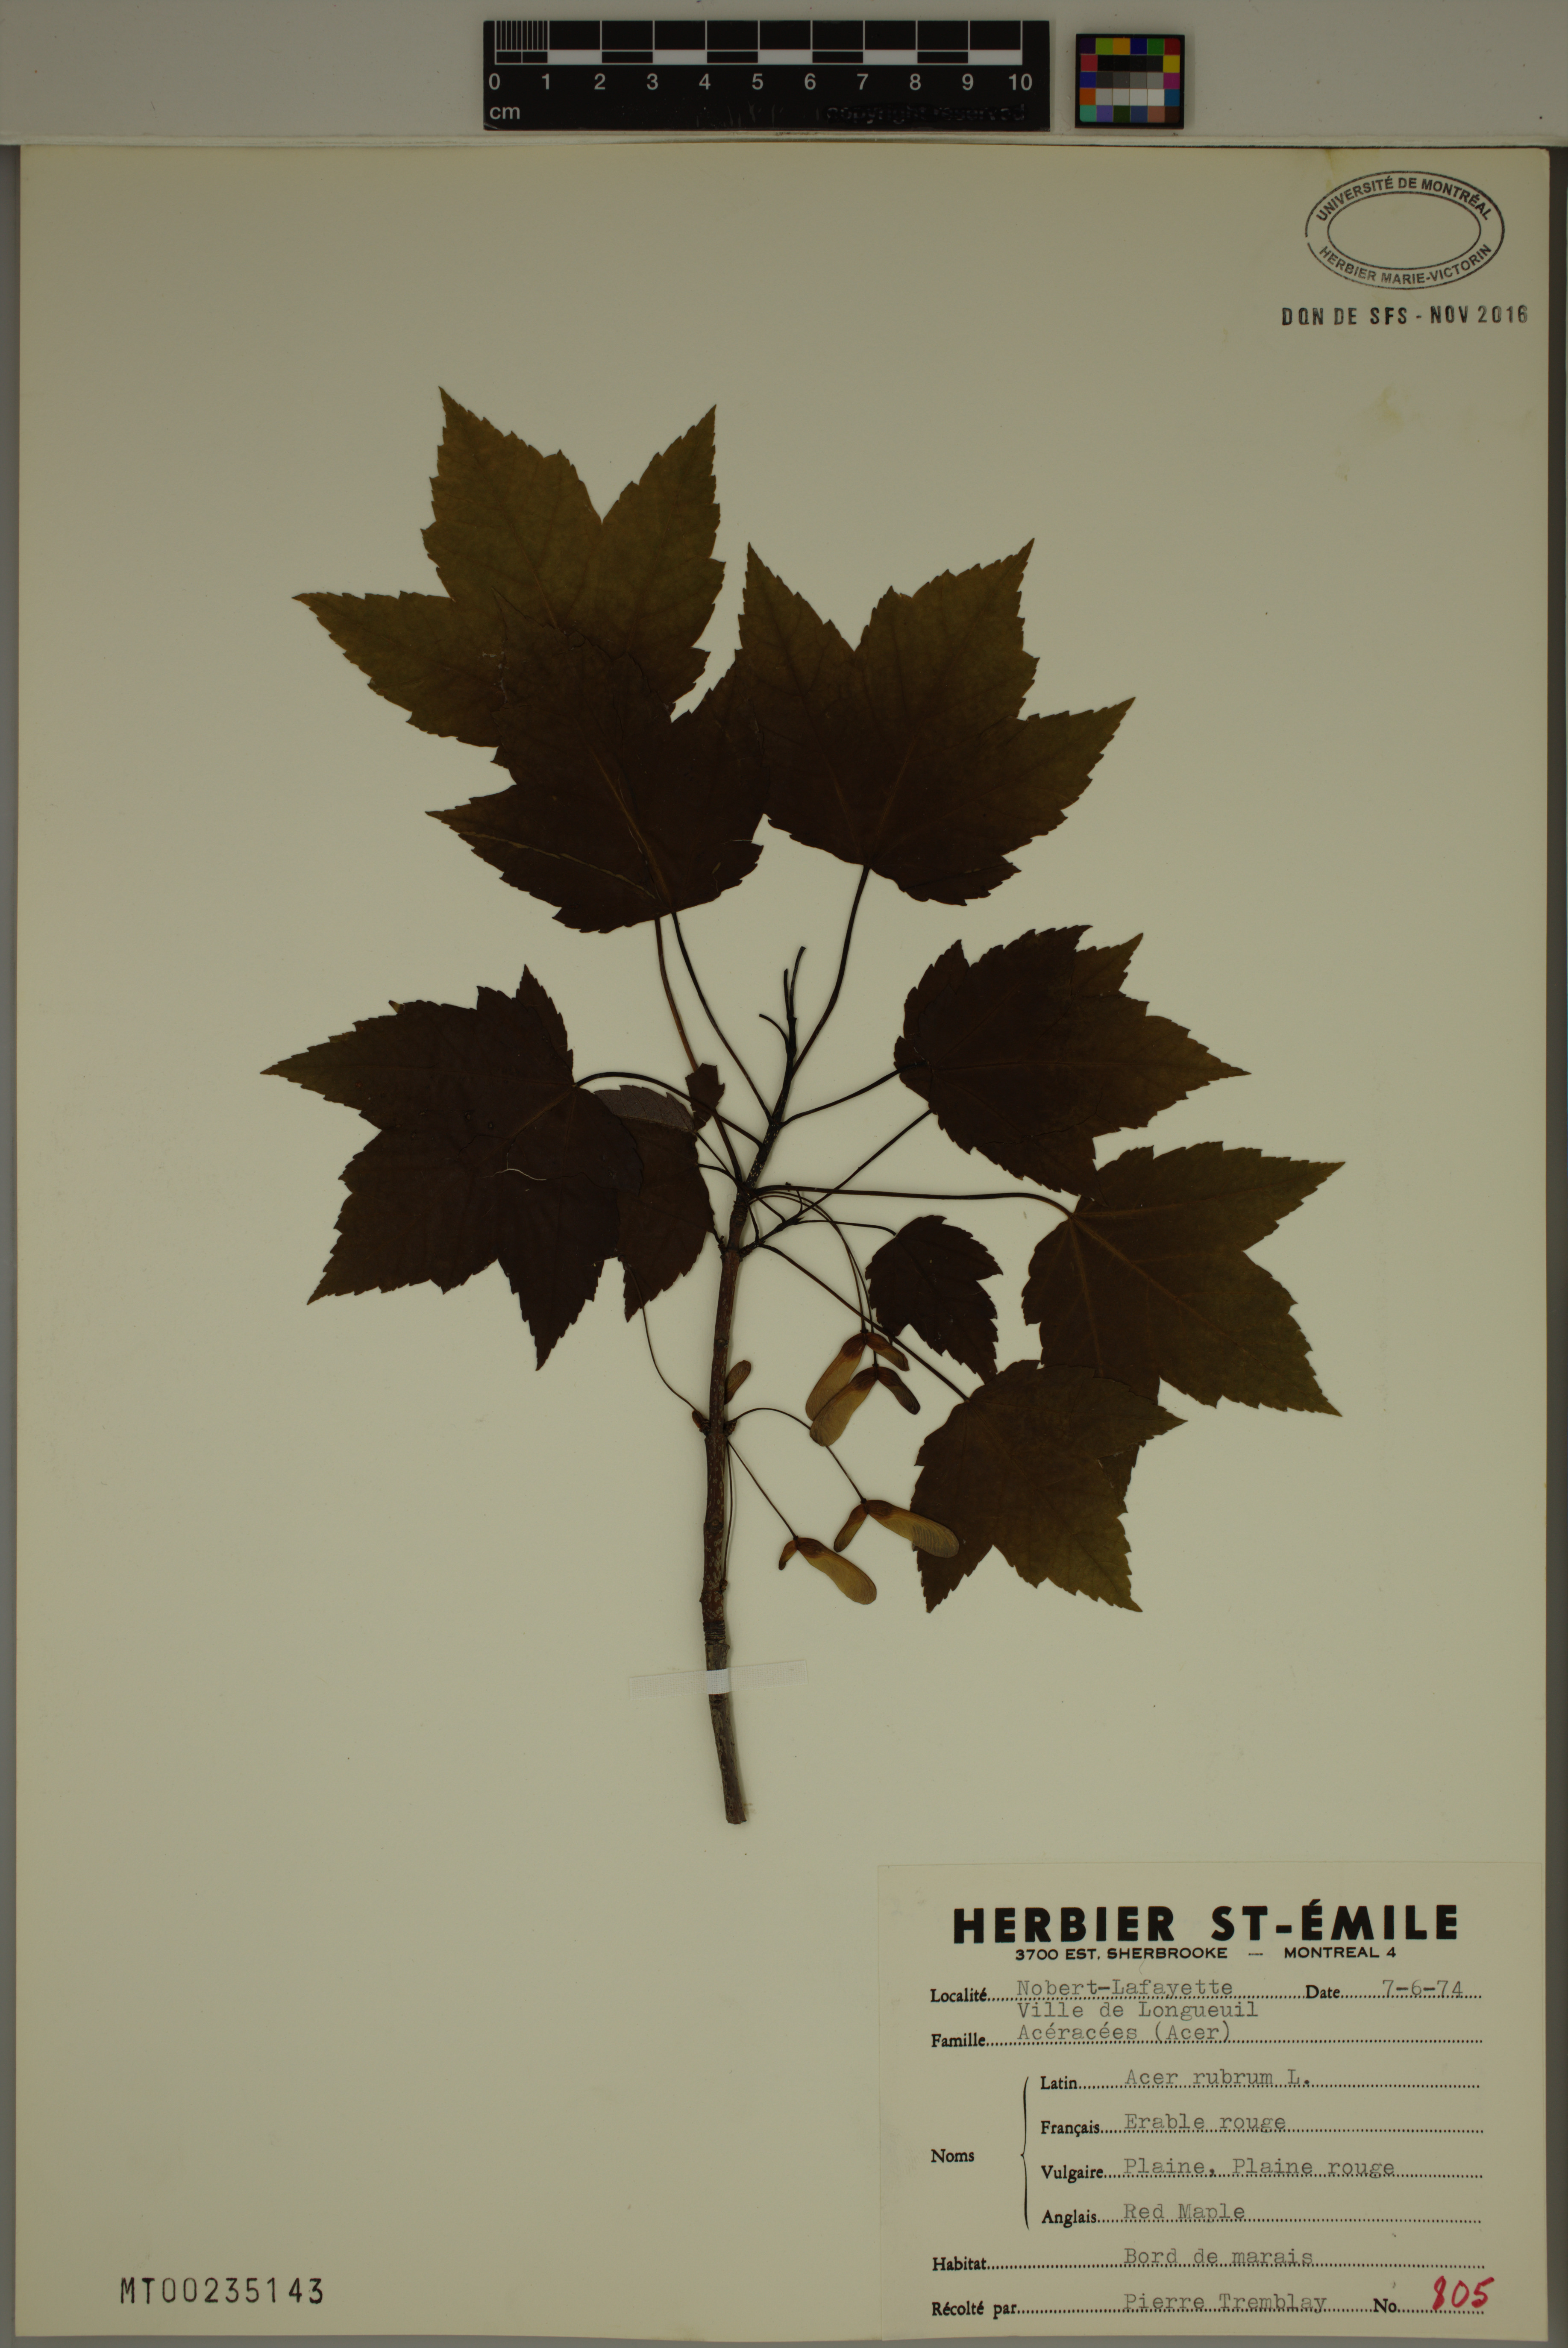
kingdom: Plantae
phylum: Tracheophyta
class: Magnoliopsida
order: Sapindales
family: Sapindaceae
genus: Acer
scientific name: Acer rubrum
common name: Red maple
